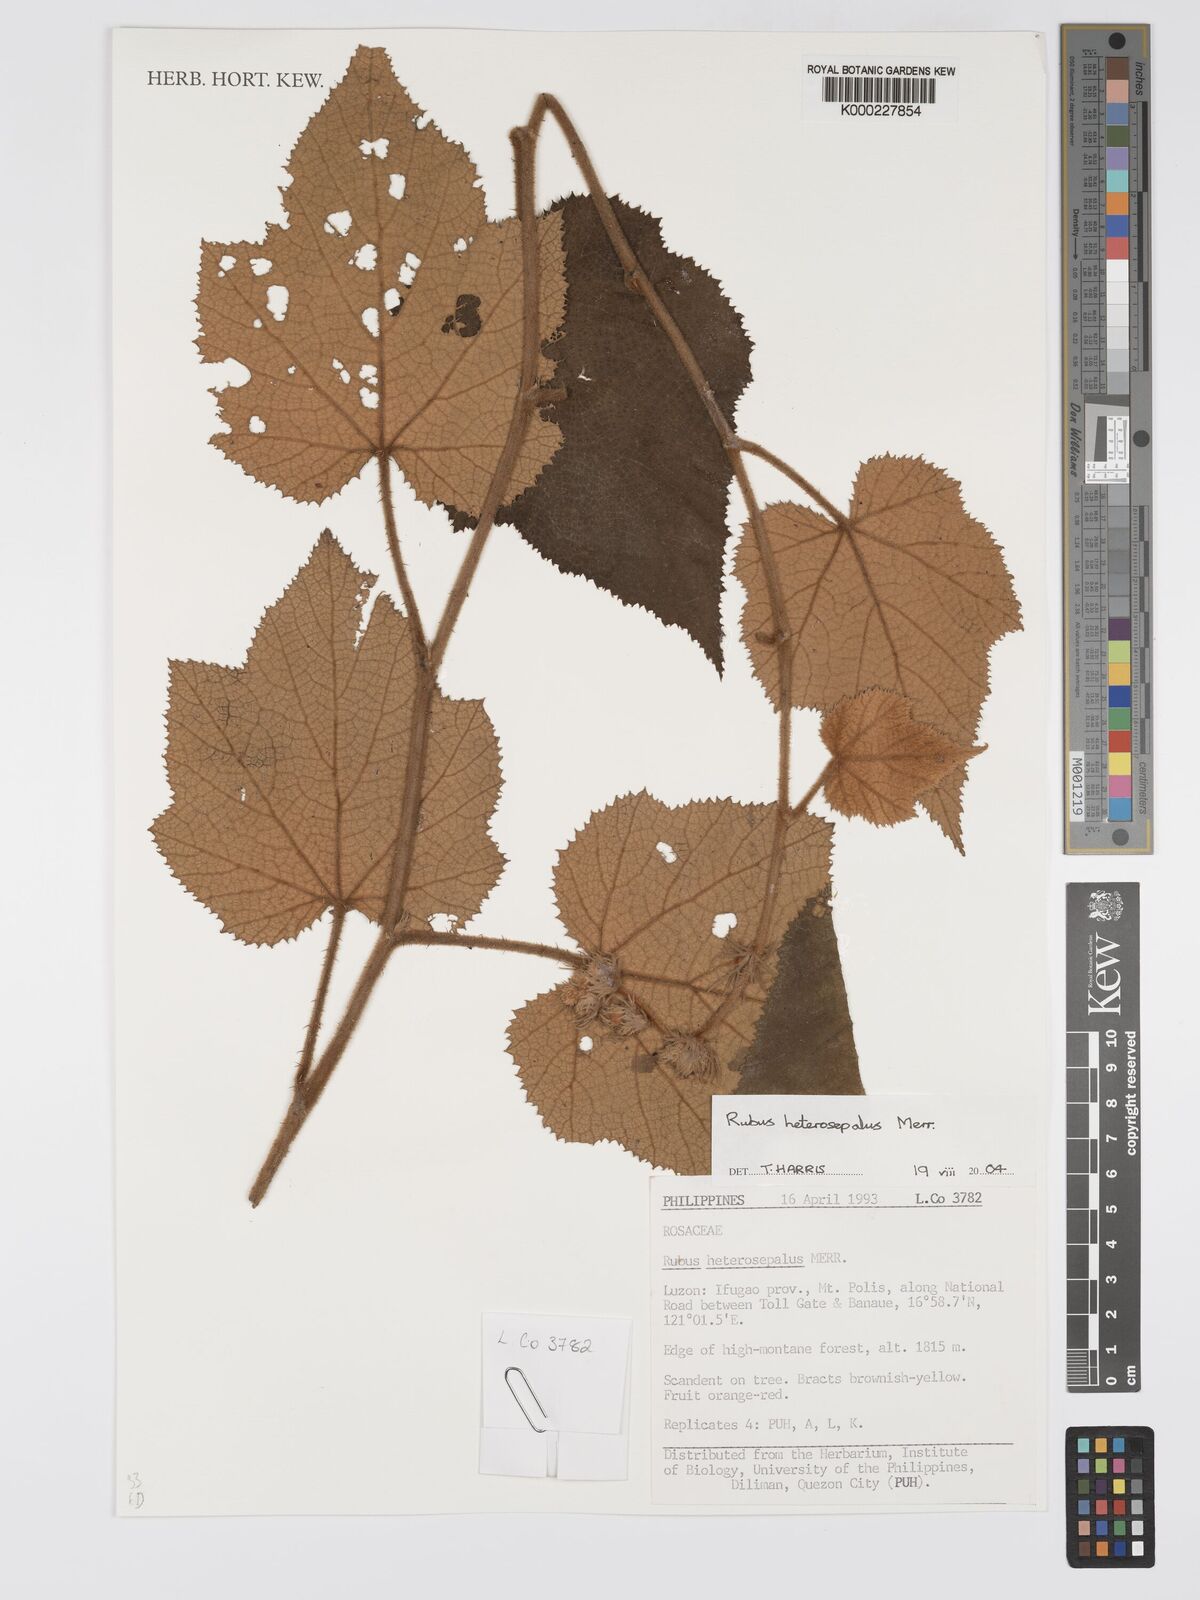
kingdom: Plantae
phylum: Tracheophyta
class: Magnoliopsida
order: Rosales
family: Rosaceae
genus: Rubus
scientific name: Rubus heterosepalus
